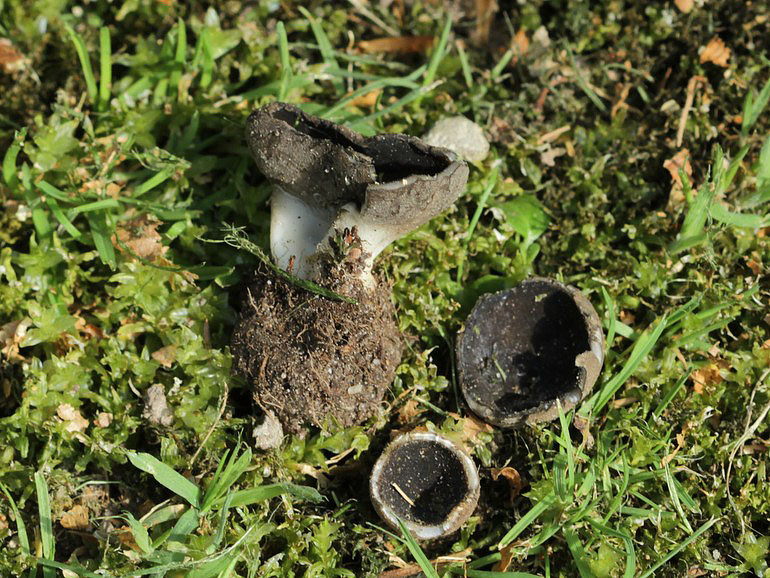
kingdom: Fungi
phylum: Ascomycota
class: Pezizomycetes
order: Pezizales
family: Helvellaceae
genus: Dissingia
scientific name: Dissingia leucomelaena
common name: sorthvid foldhat
